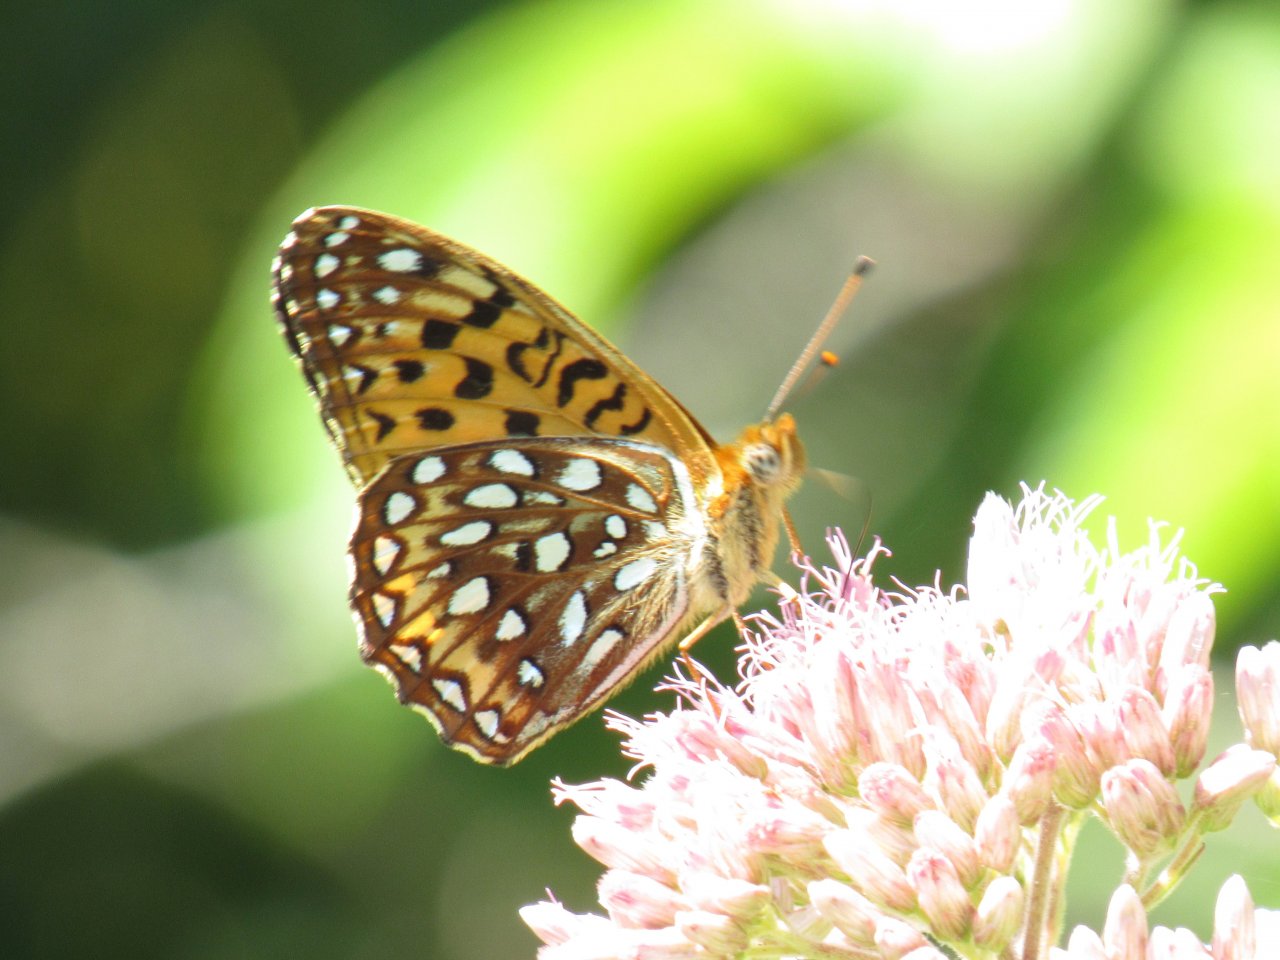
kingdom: Animalia
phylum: Arthropoda
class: Insecta
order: Lepidoptera
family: Nymphalidae
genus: Speyeria
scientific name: Speyeria atlantis
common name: Atlantis Fritillary
